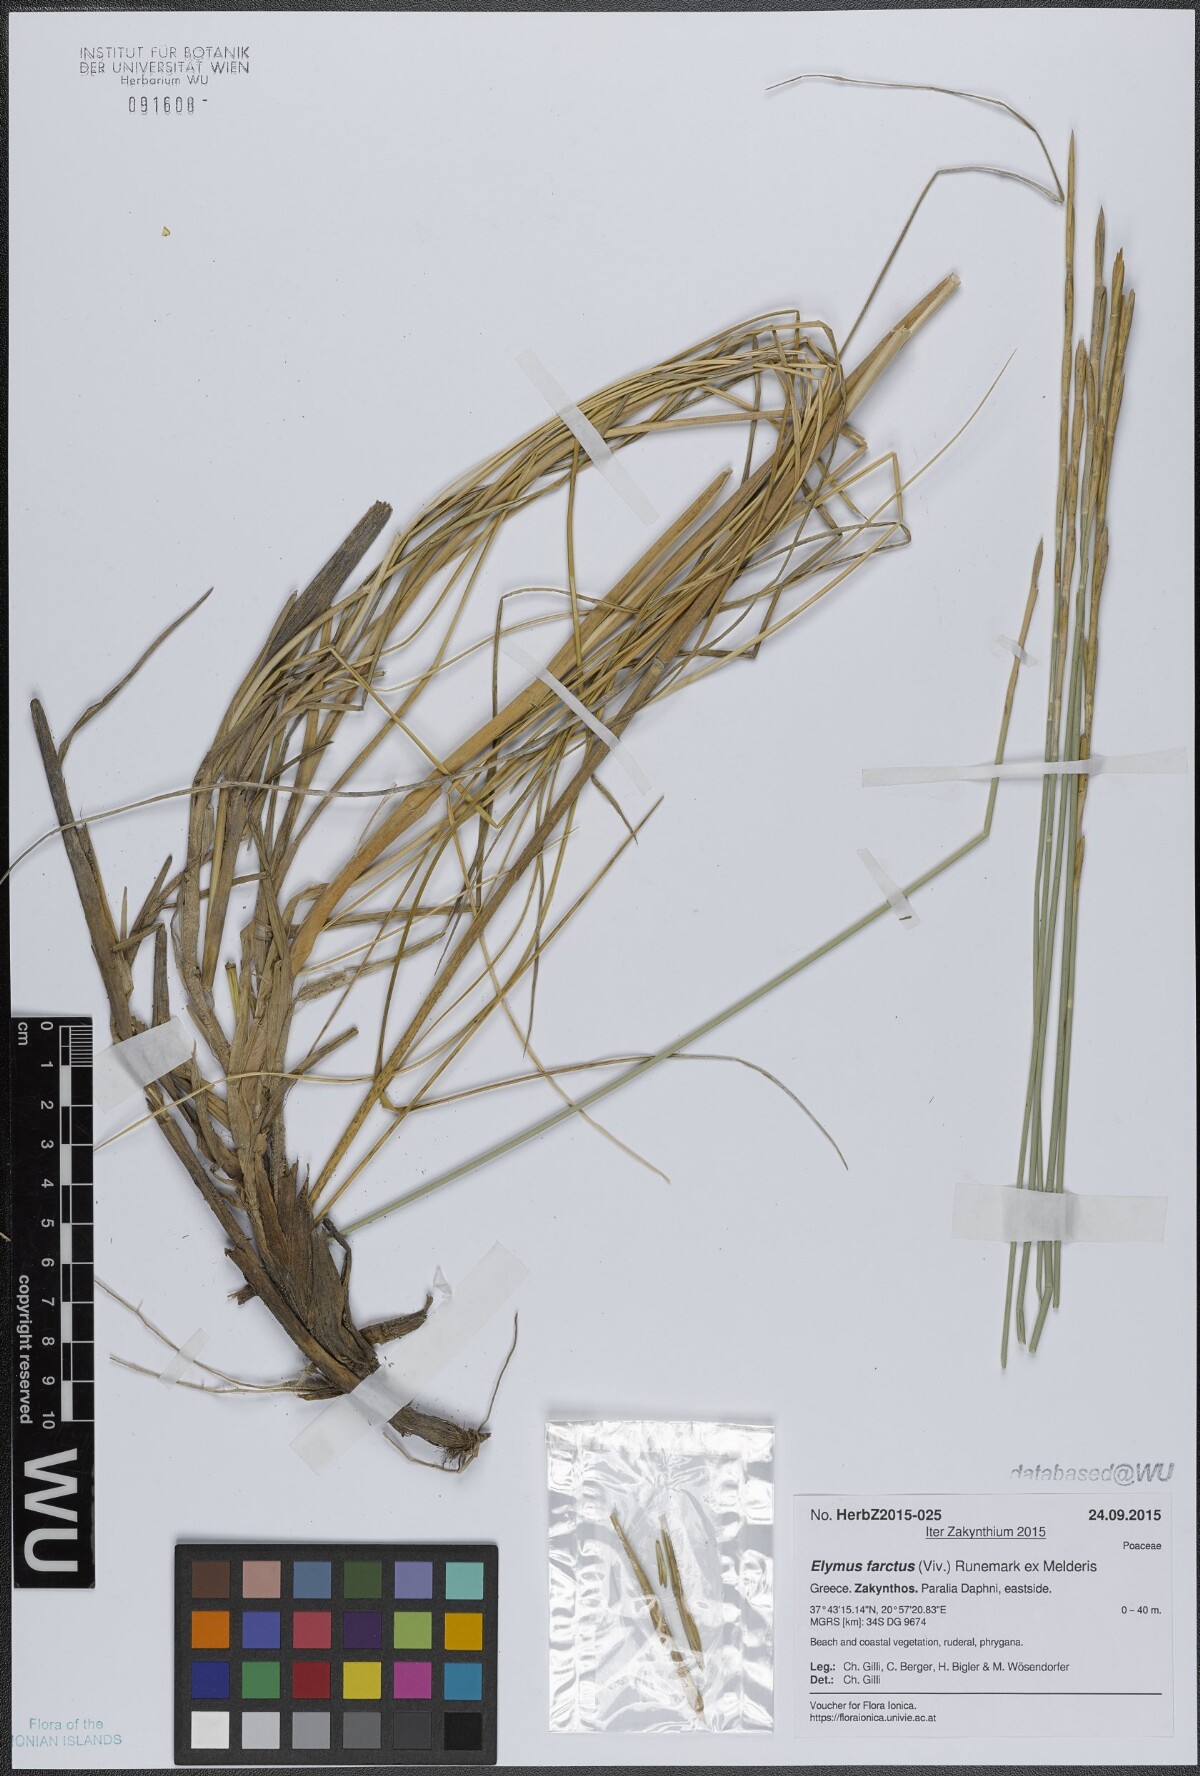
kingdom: Plantae
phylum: Tracheophyta
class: Liliopsida
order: Poales
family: Poaceae
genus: Thinopyrum
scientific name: Thinopyrum junceum
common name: Russian wheatgrass
